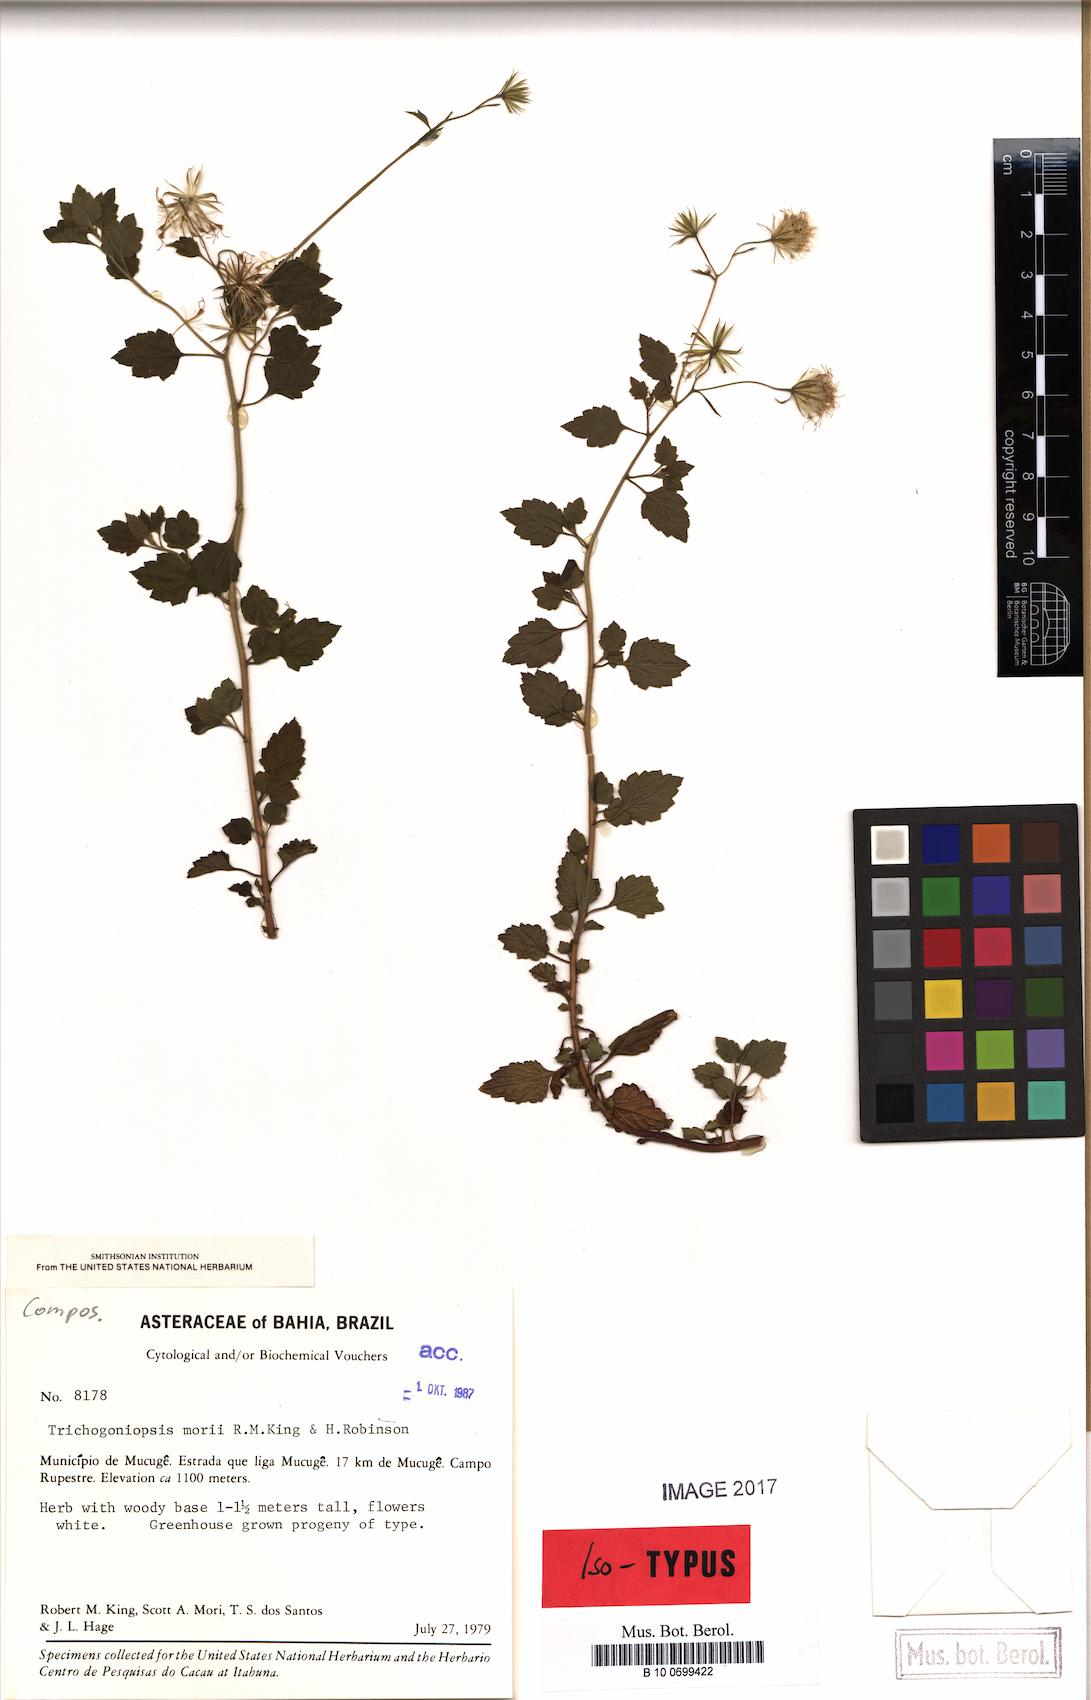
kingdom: Plantae
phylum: Tracheophyta
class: Magnoliopsida
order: Asterales
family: Asteraceae
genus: Trichogoniopsis
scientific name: Trichogoniopsis morii
